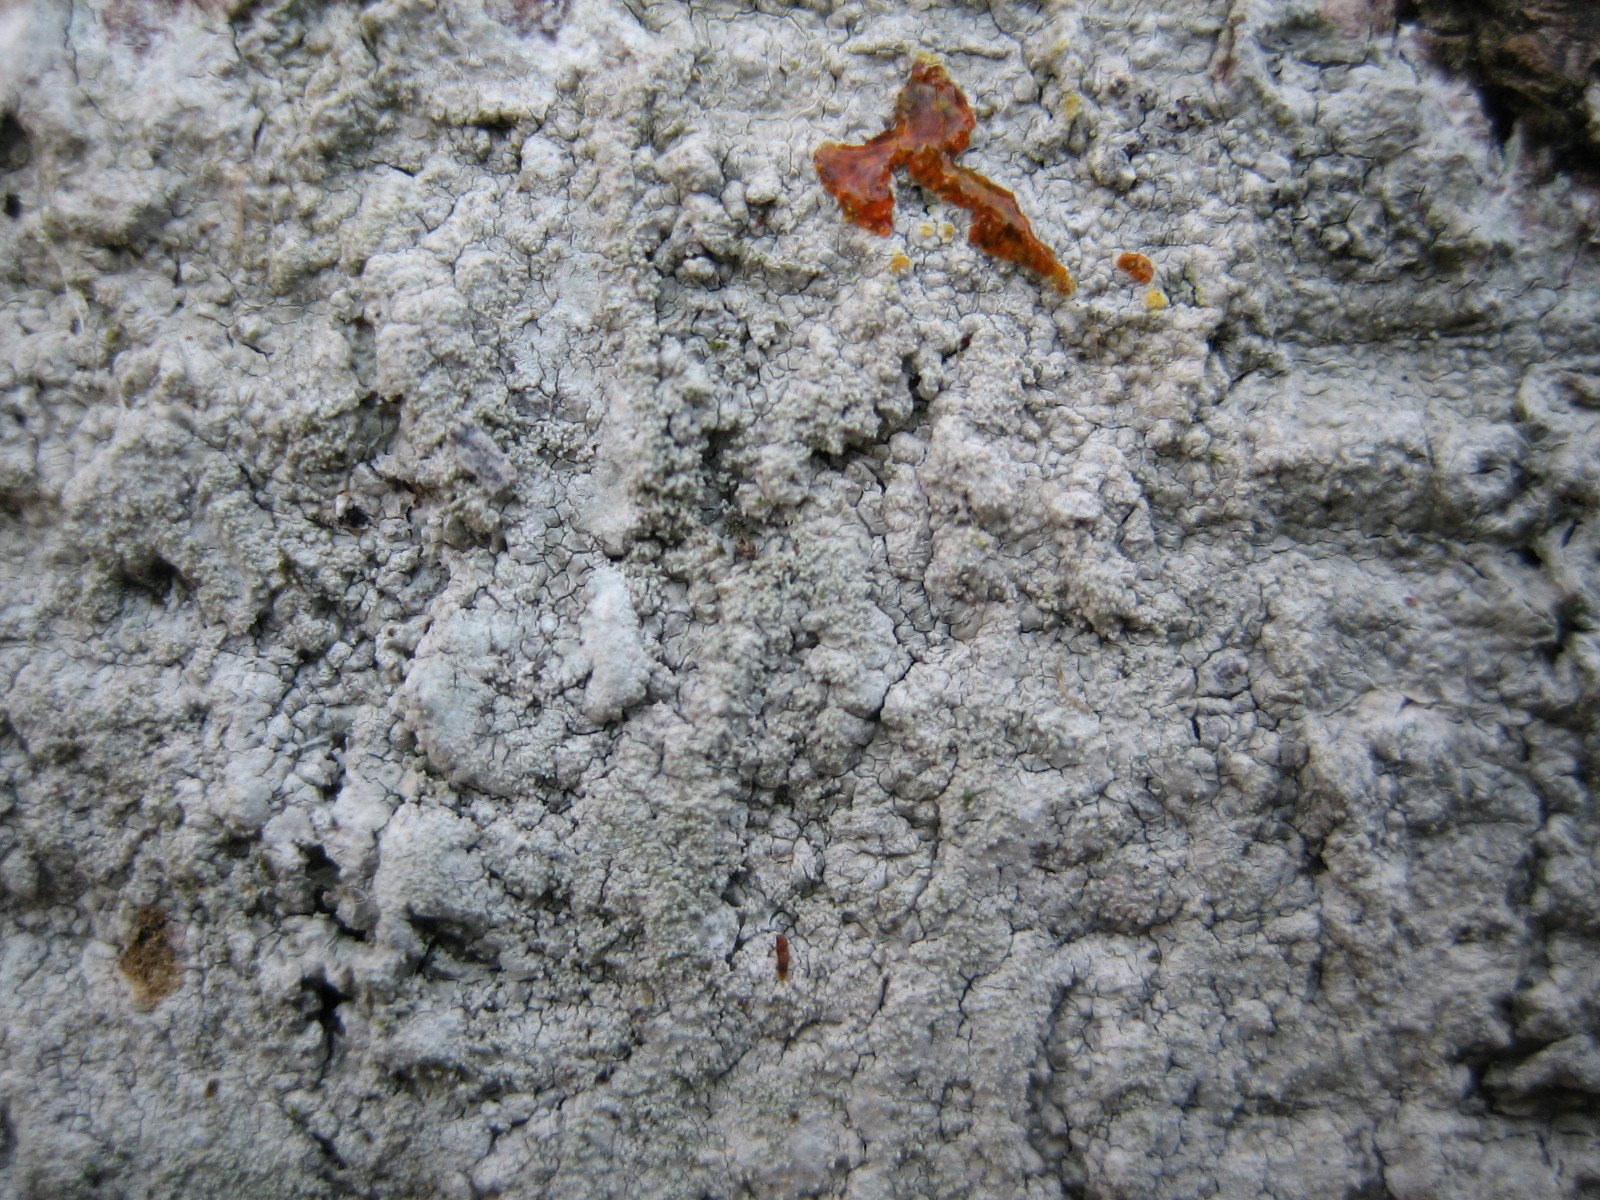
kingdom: Fungi
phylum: Ascomycota
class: Lecanoromycetes
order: Pertusariales
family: Pertusariaceae
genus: Pertusaria
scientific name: Pertusaria coccodes
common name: skurvet prikvortelav
